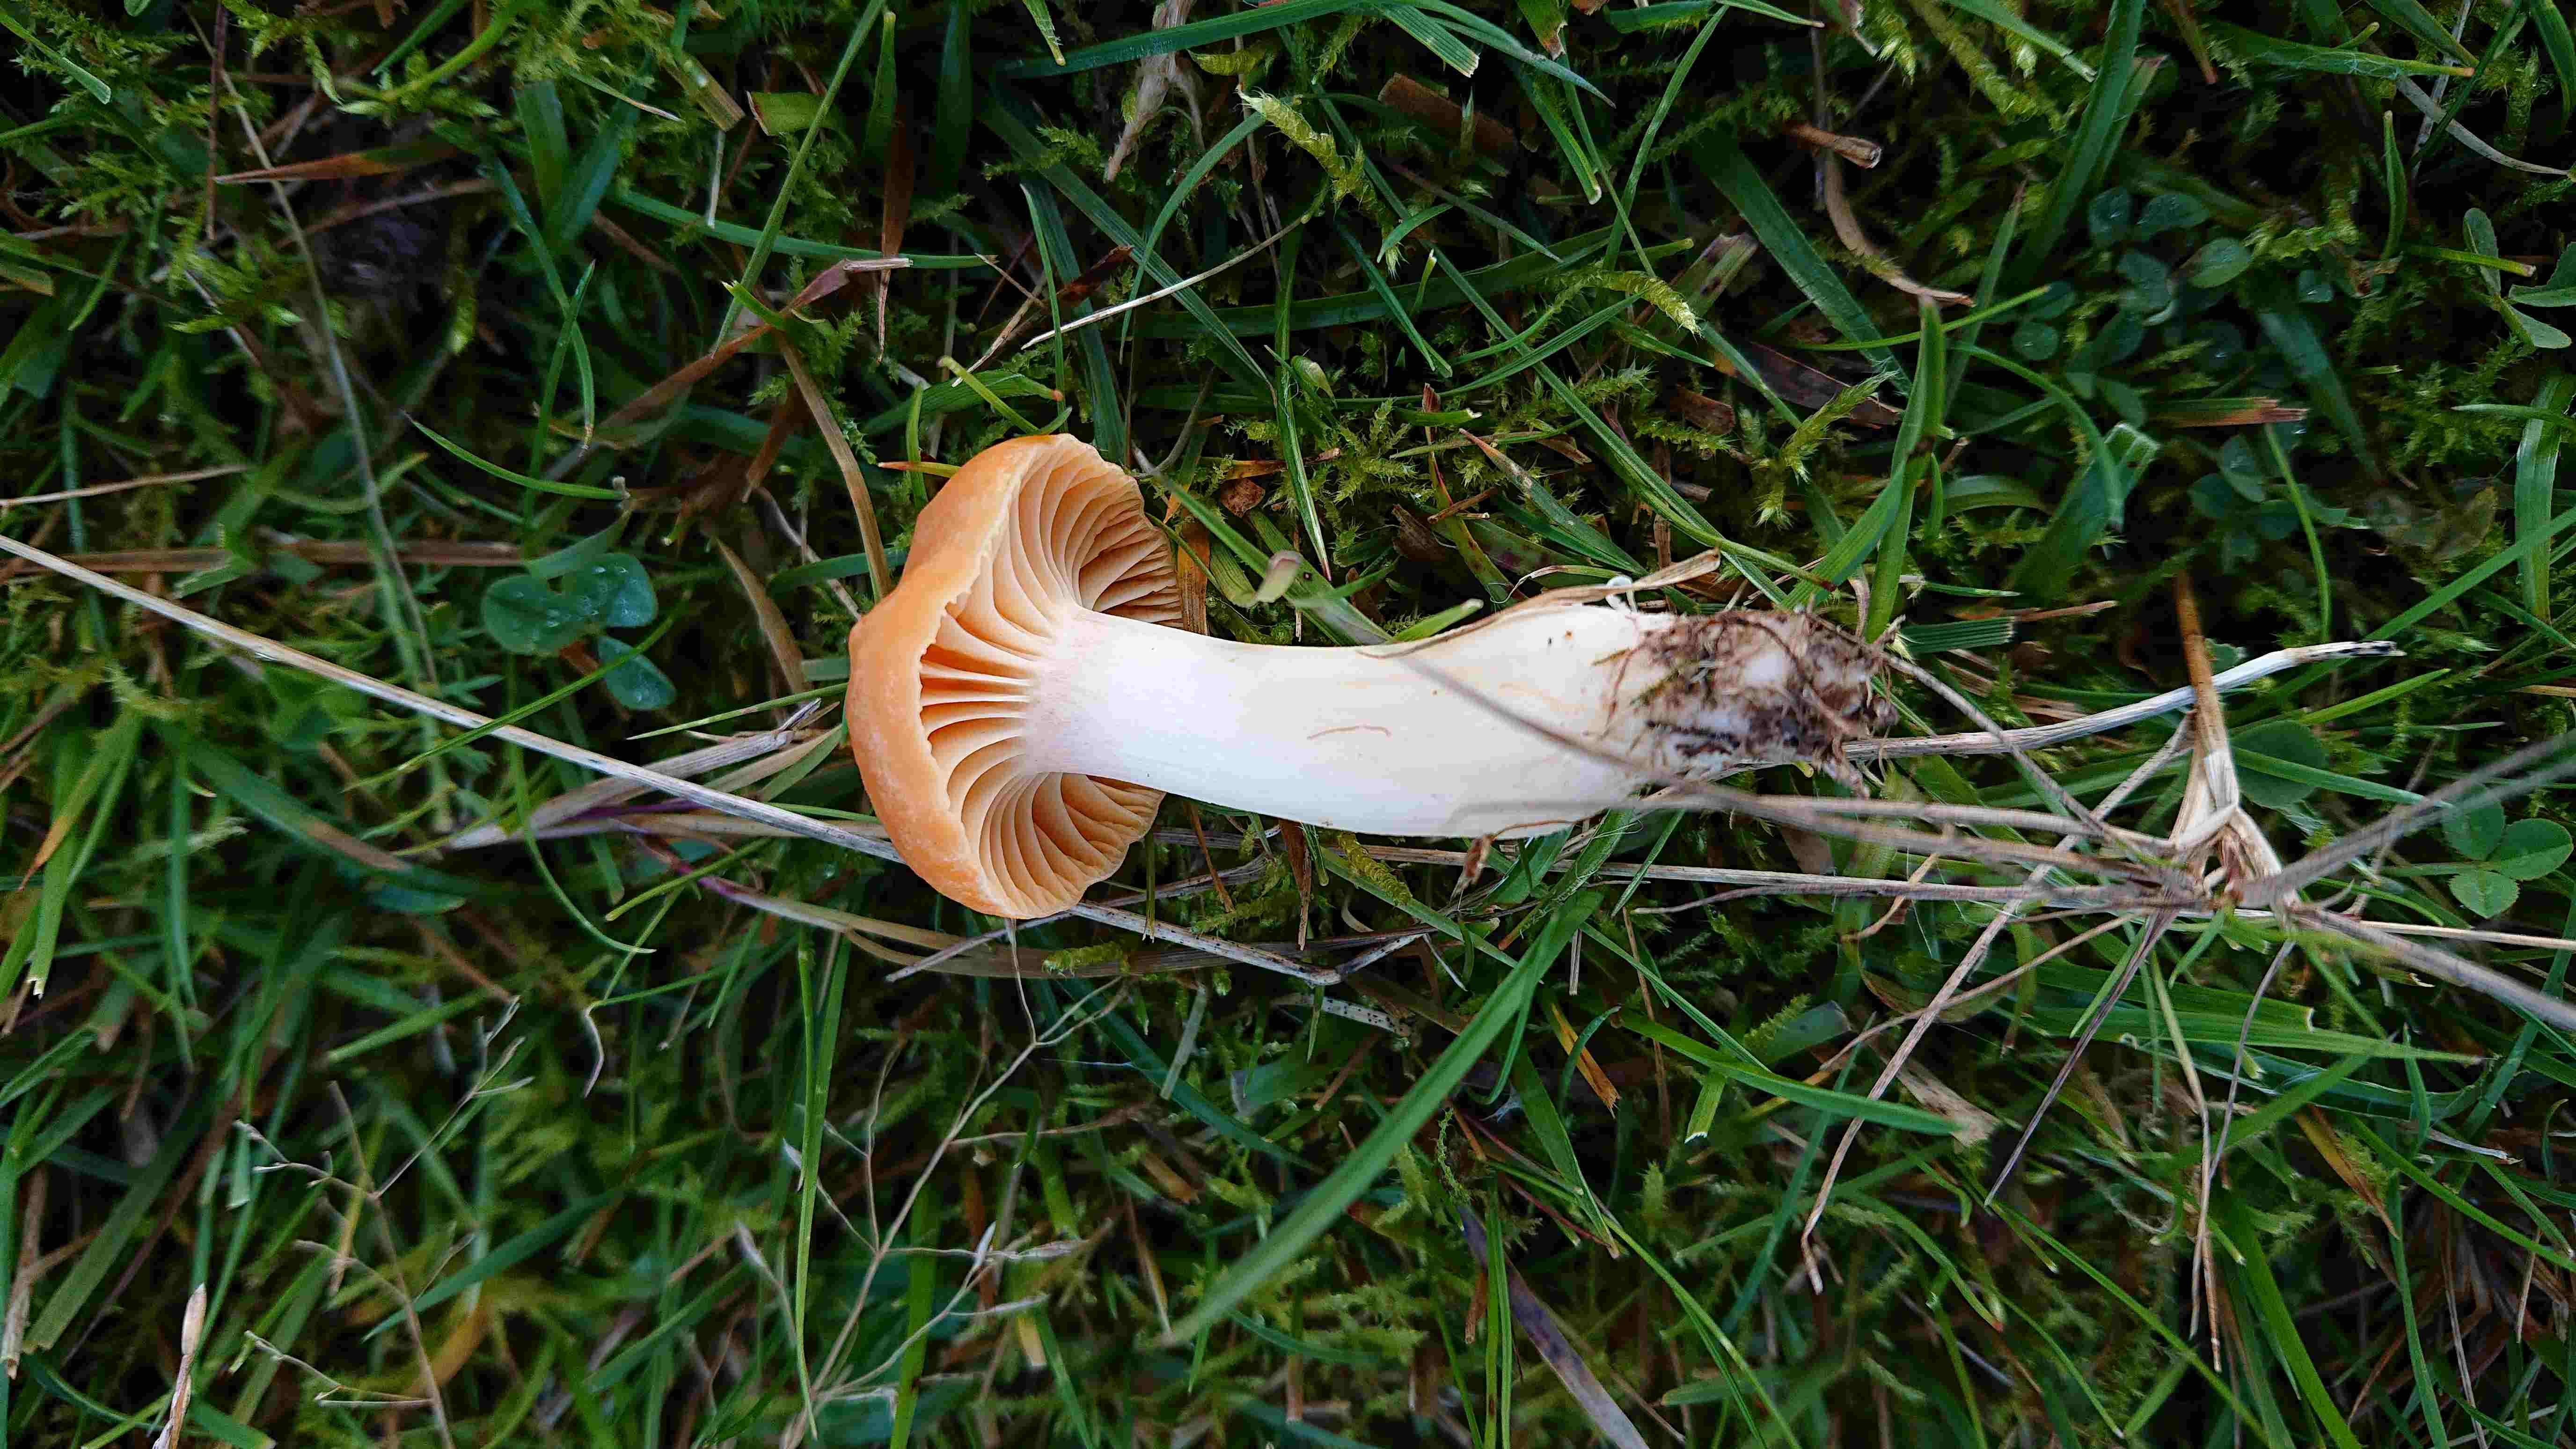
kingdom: Fungi
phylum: Basidiomycota
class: Agaricomycetes
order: Agaricales
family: Hygrophoraceae
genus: Cuphophyllus
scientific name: Cuphophyllus pratensis
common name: eng-vokshat
